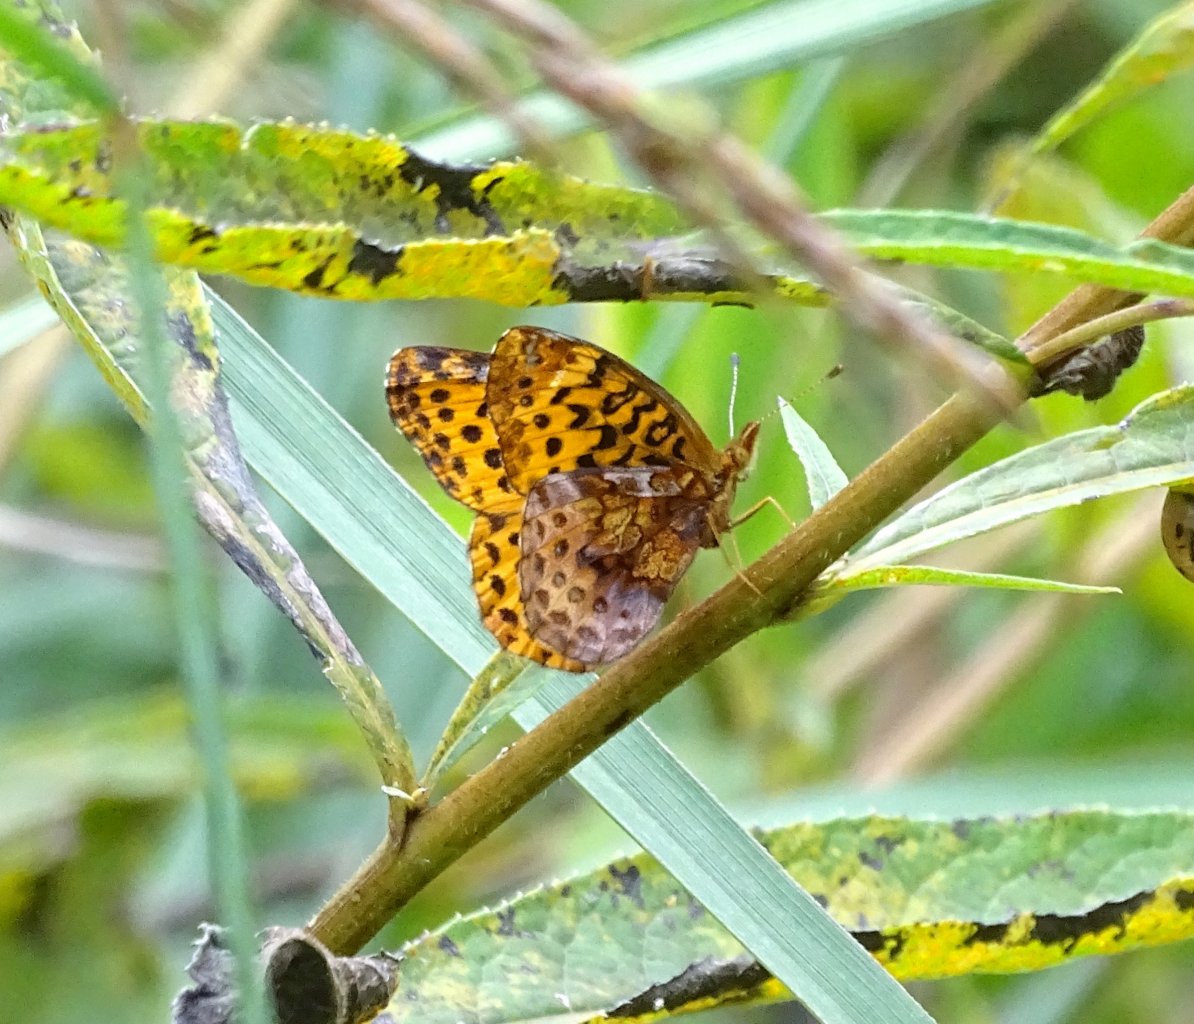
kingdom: Animalia
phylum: Arthropoda
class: Insecta
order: Lepidoptera
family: Nymphalidae
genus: Clossiana
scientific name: Clossiana toddi
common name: Meadow Fritillary
